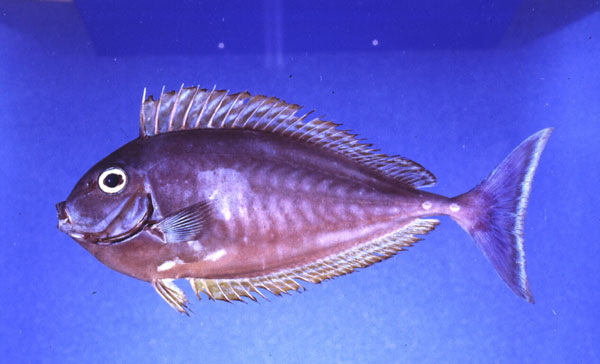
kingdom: Animalia
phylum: Chordata
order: Perciformes
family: Acanthuridae
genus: Naso
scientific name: Naso hexacanthus
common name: Black unicornfish
